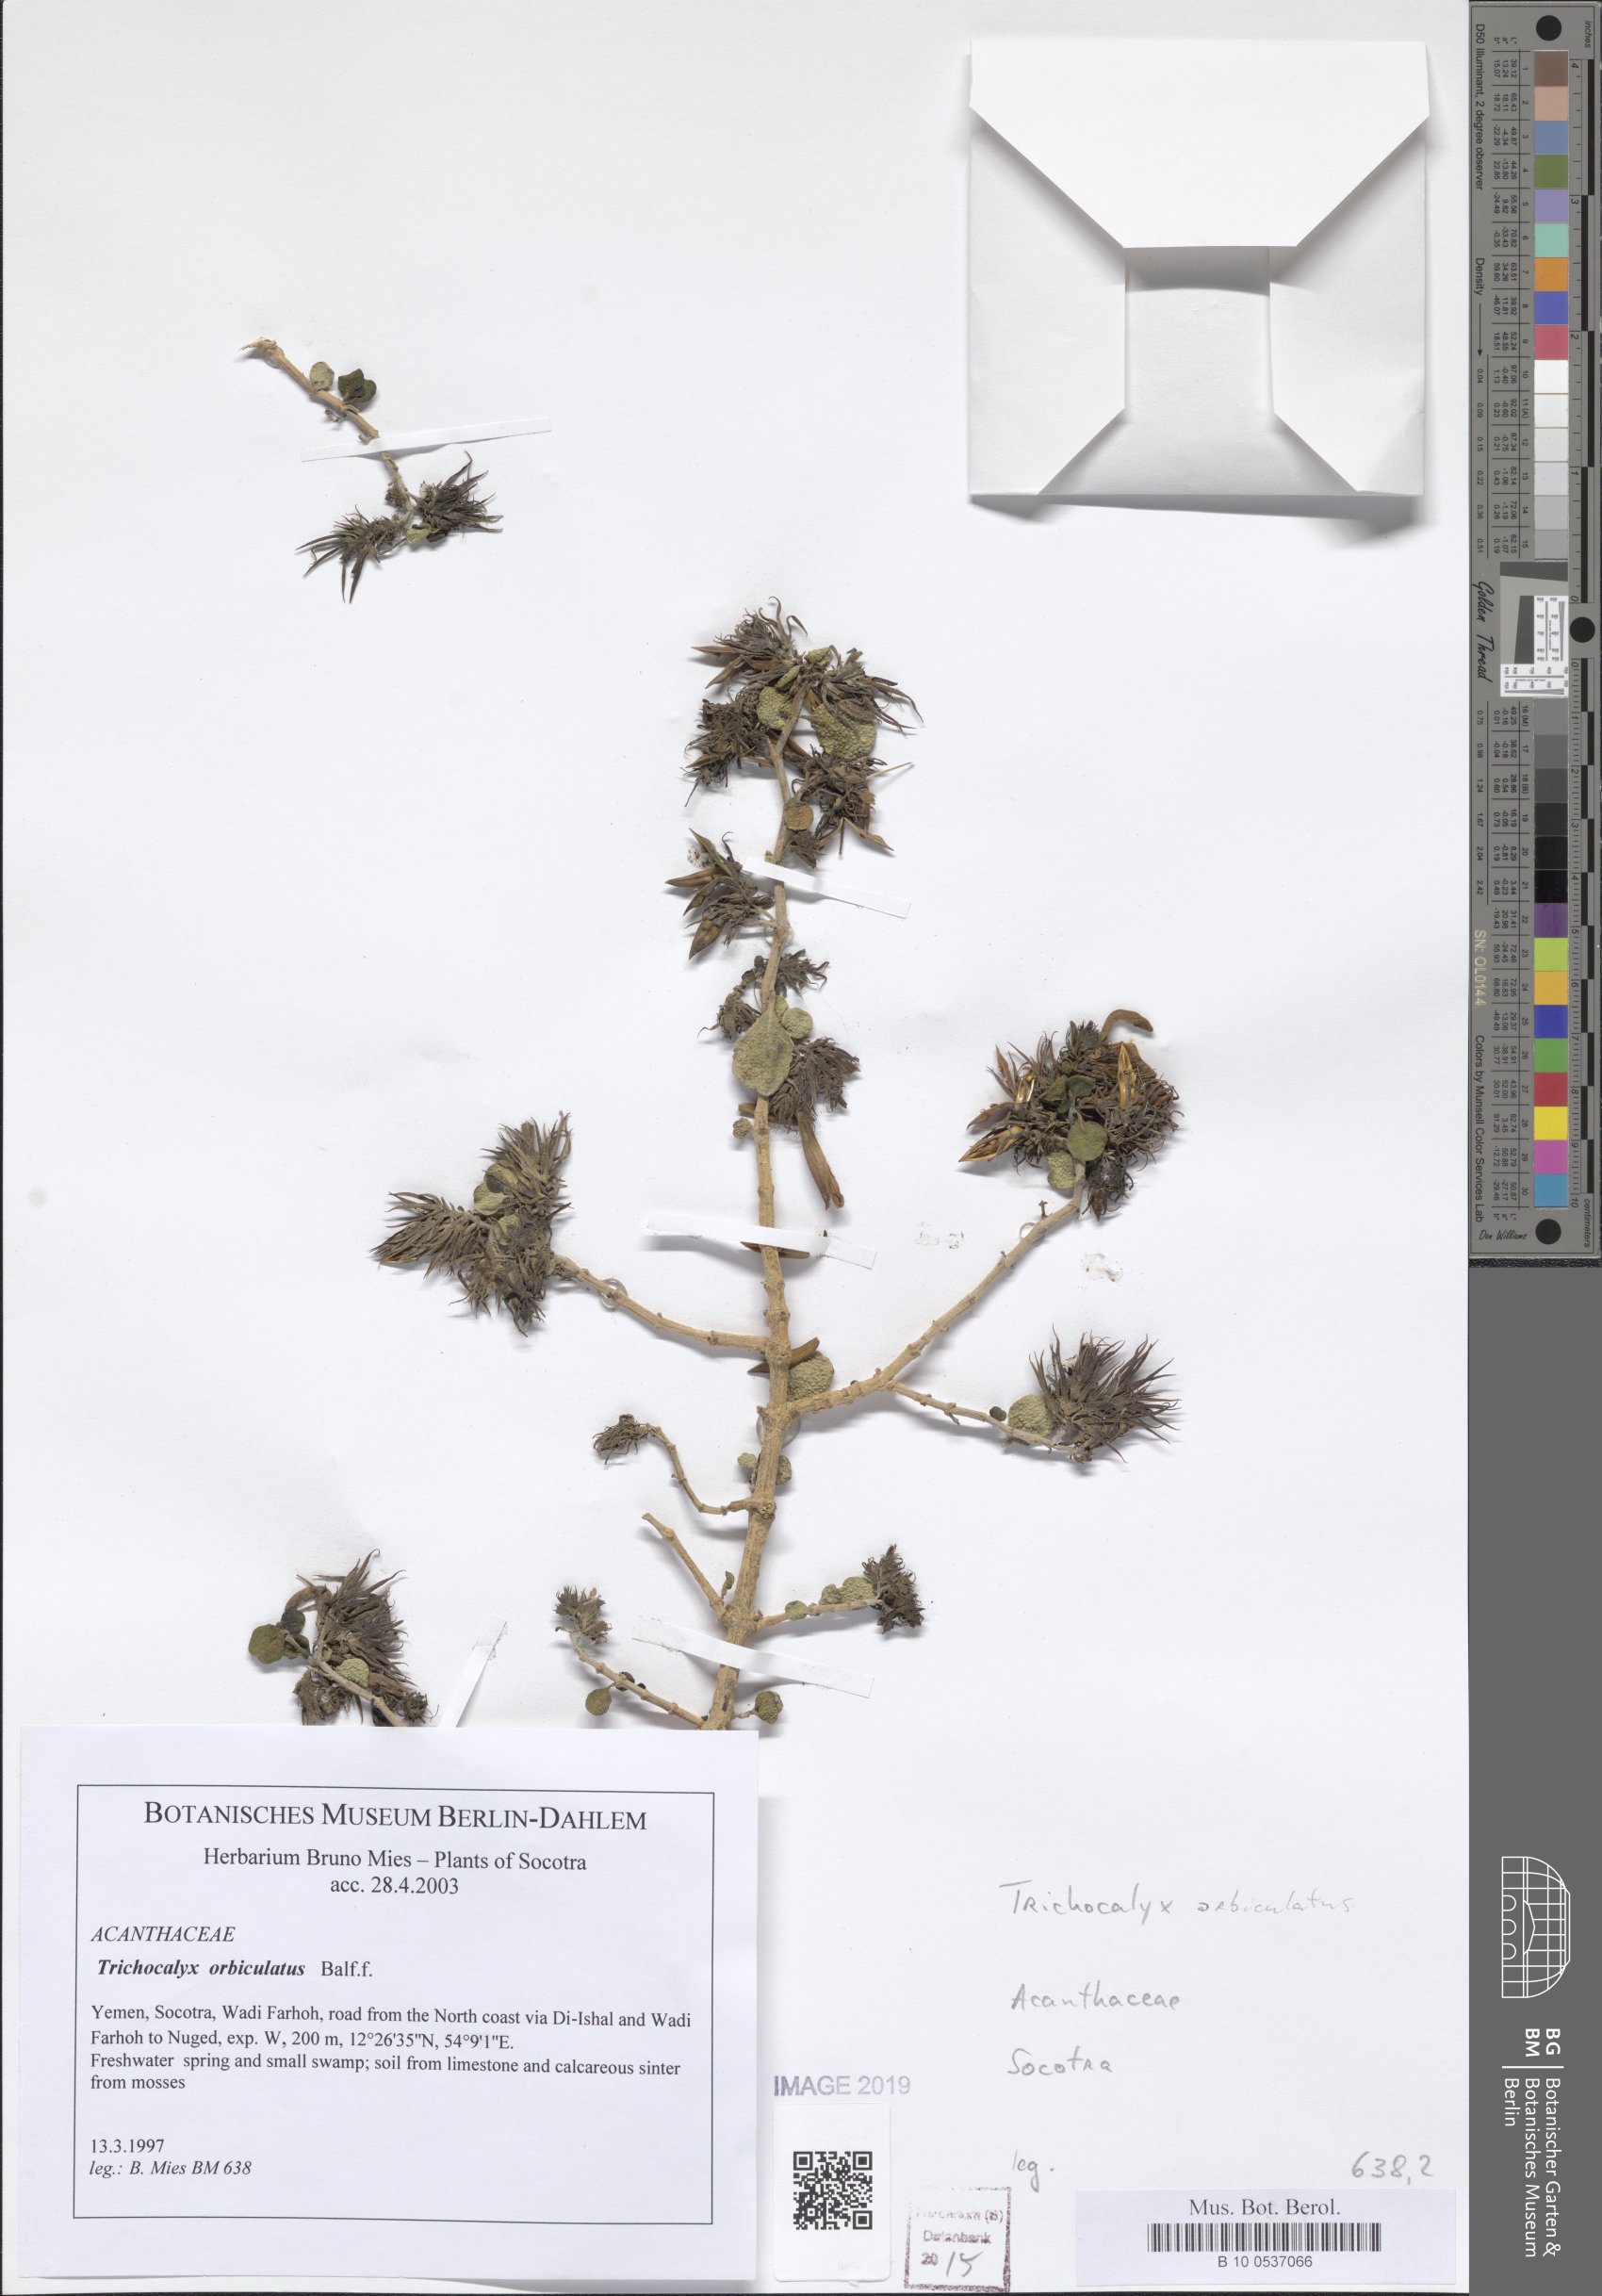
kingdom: Plantae
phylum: Tracheophyta
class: Magnoliopsida
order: Lamiales
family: Acanthaceae
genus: Trichocalyx
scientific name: Trichocalyx orbiculatus
